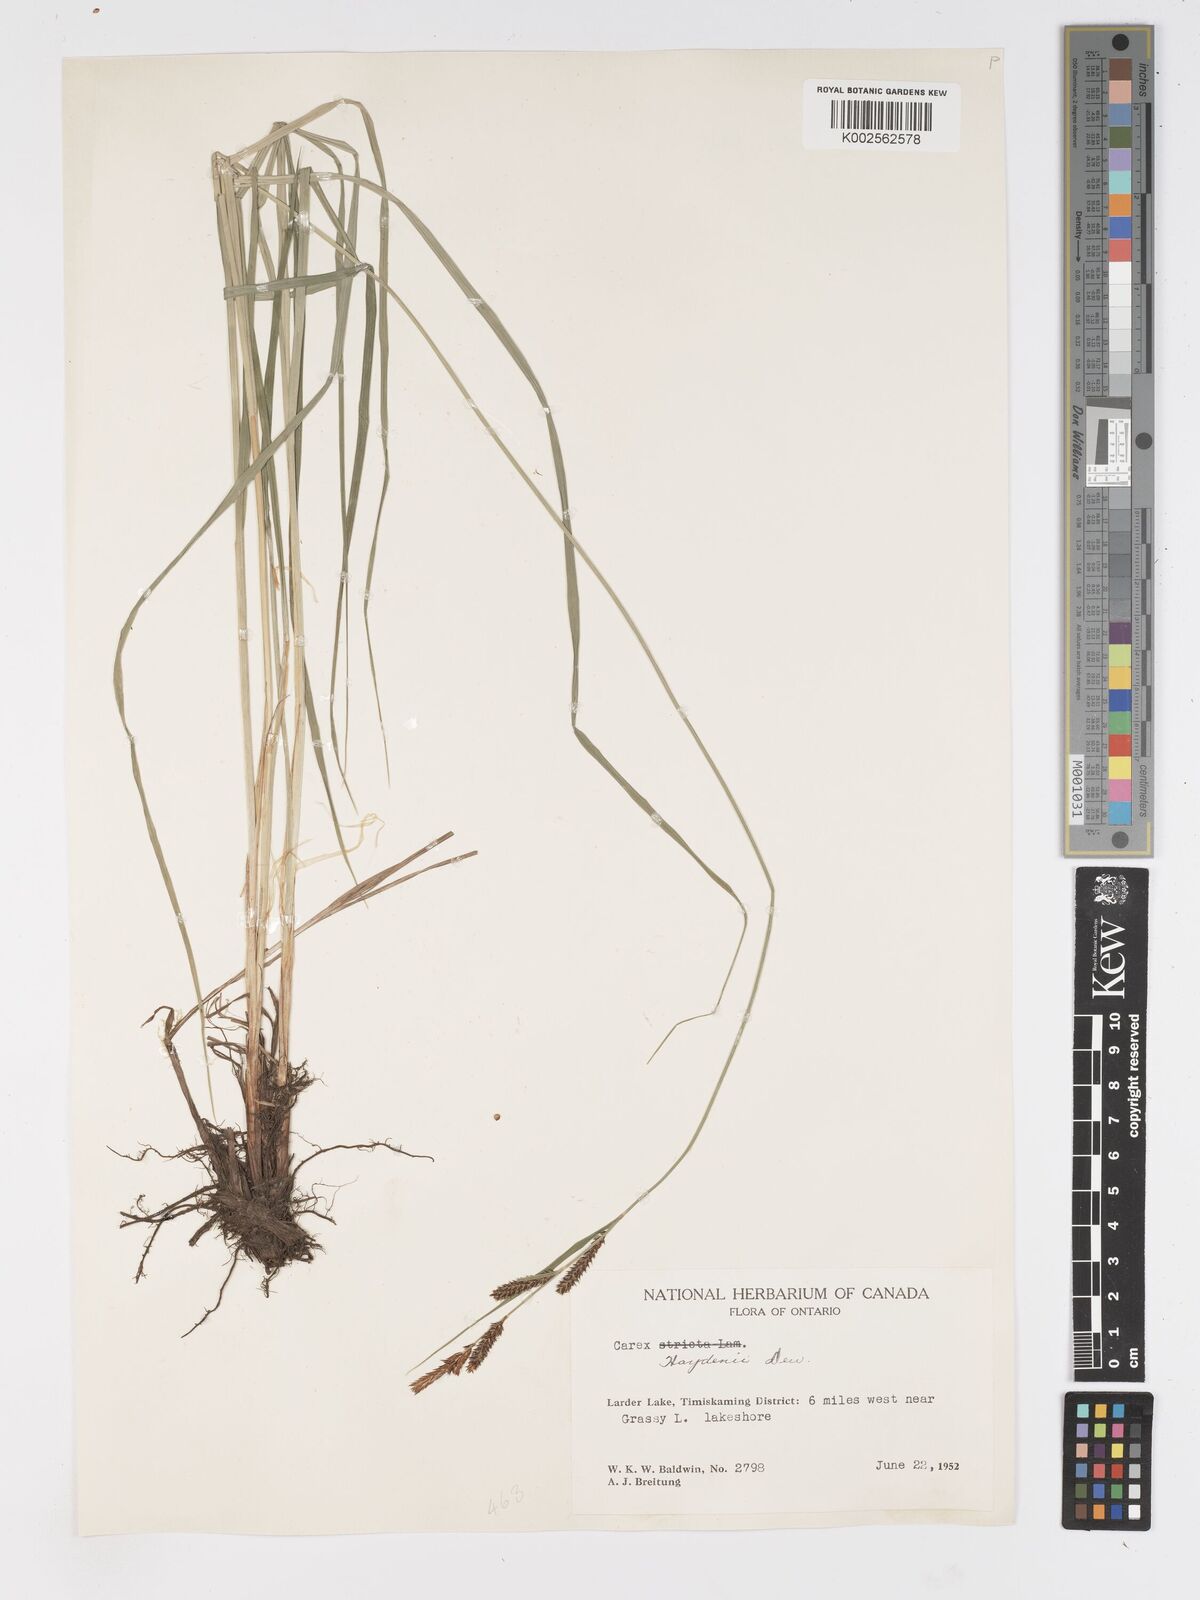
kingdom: Plantae
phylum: Tracheophyta
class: Liliopsida
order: Poales
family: Cyperaceae
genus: Carex
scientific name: Carex haydenii
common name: Hayden's sedge
